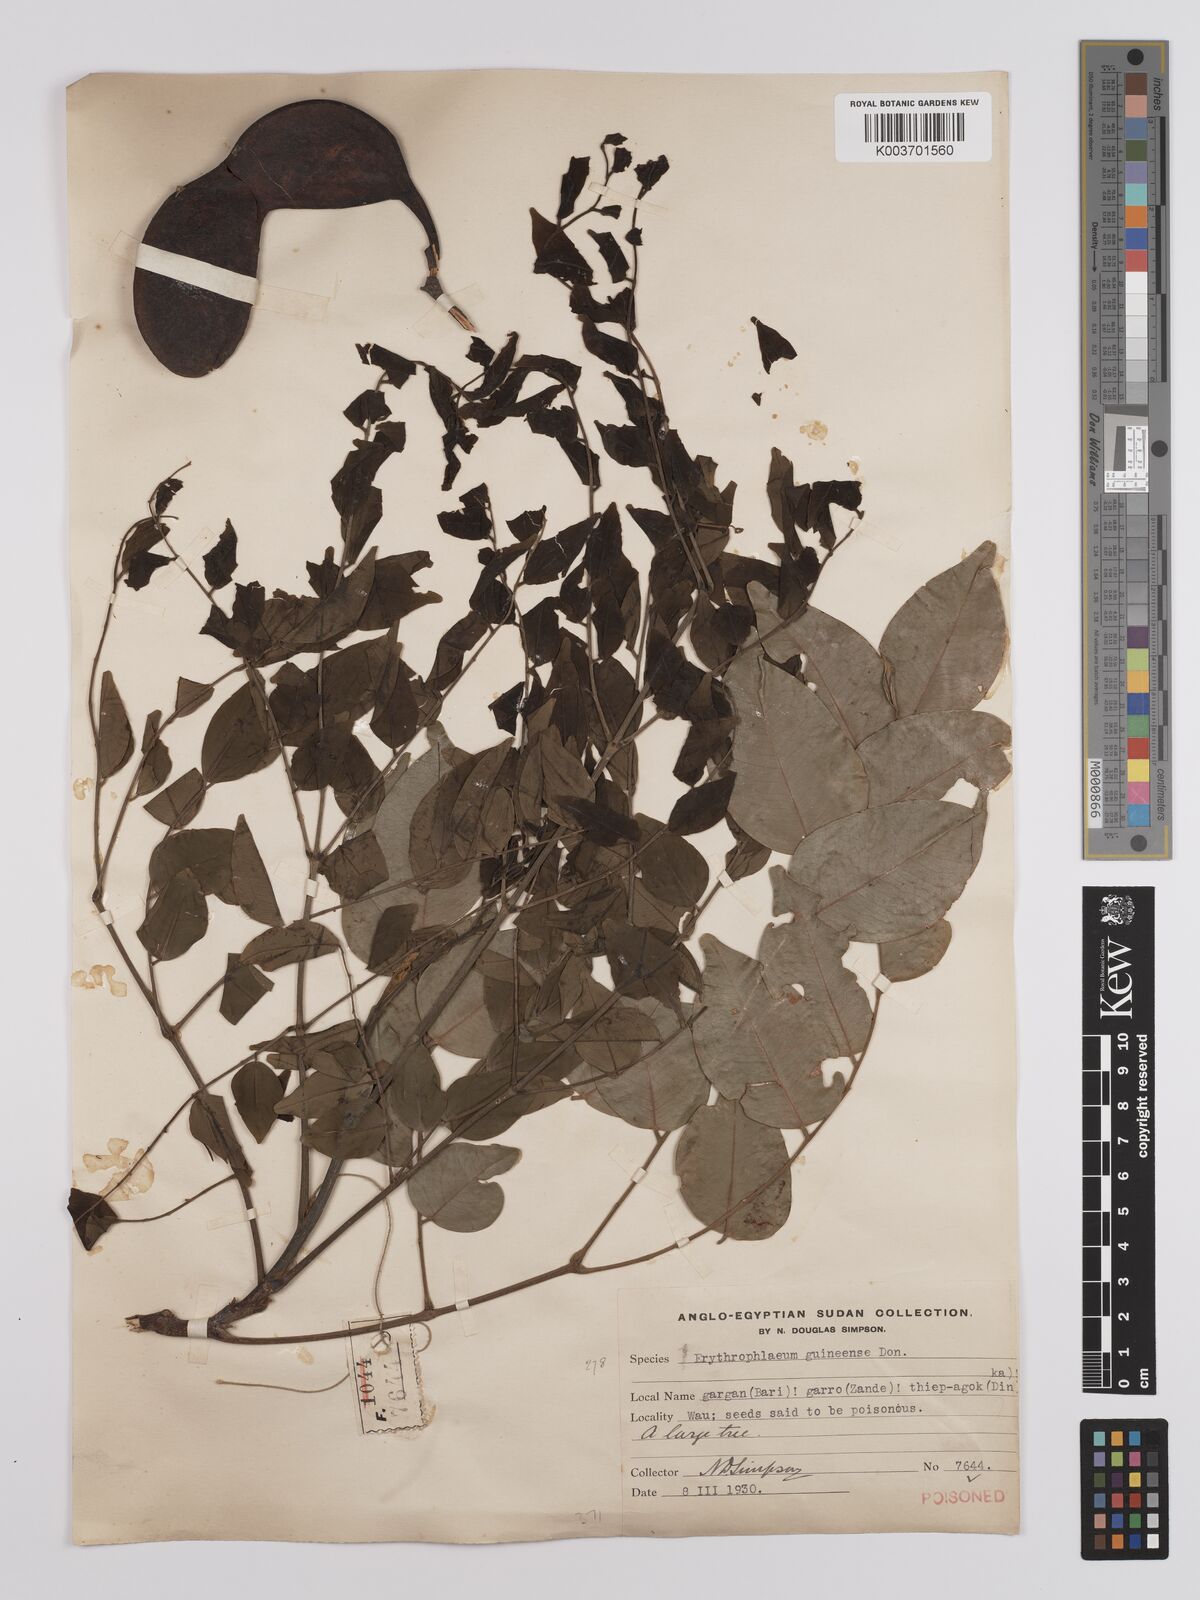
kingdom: Plantae
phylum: Tracheophyta
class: Magnoliopsida
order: Fabales
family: Fabaceae
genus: Erythrophleum
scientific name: Erythrophleum suaveolens
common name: Ordeal tree
